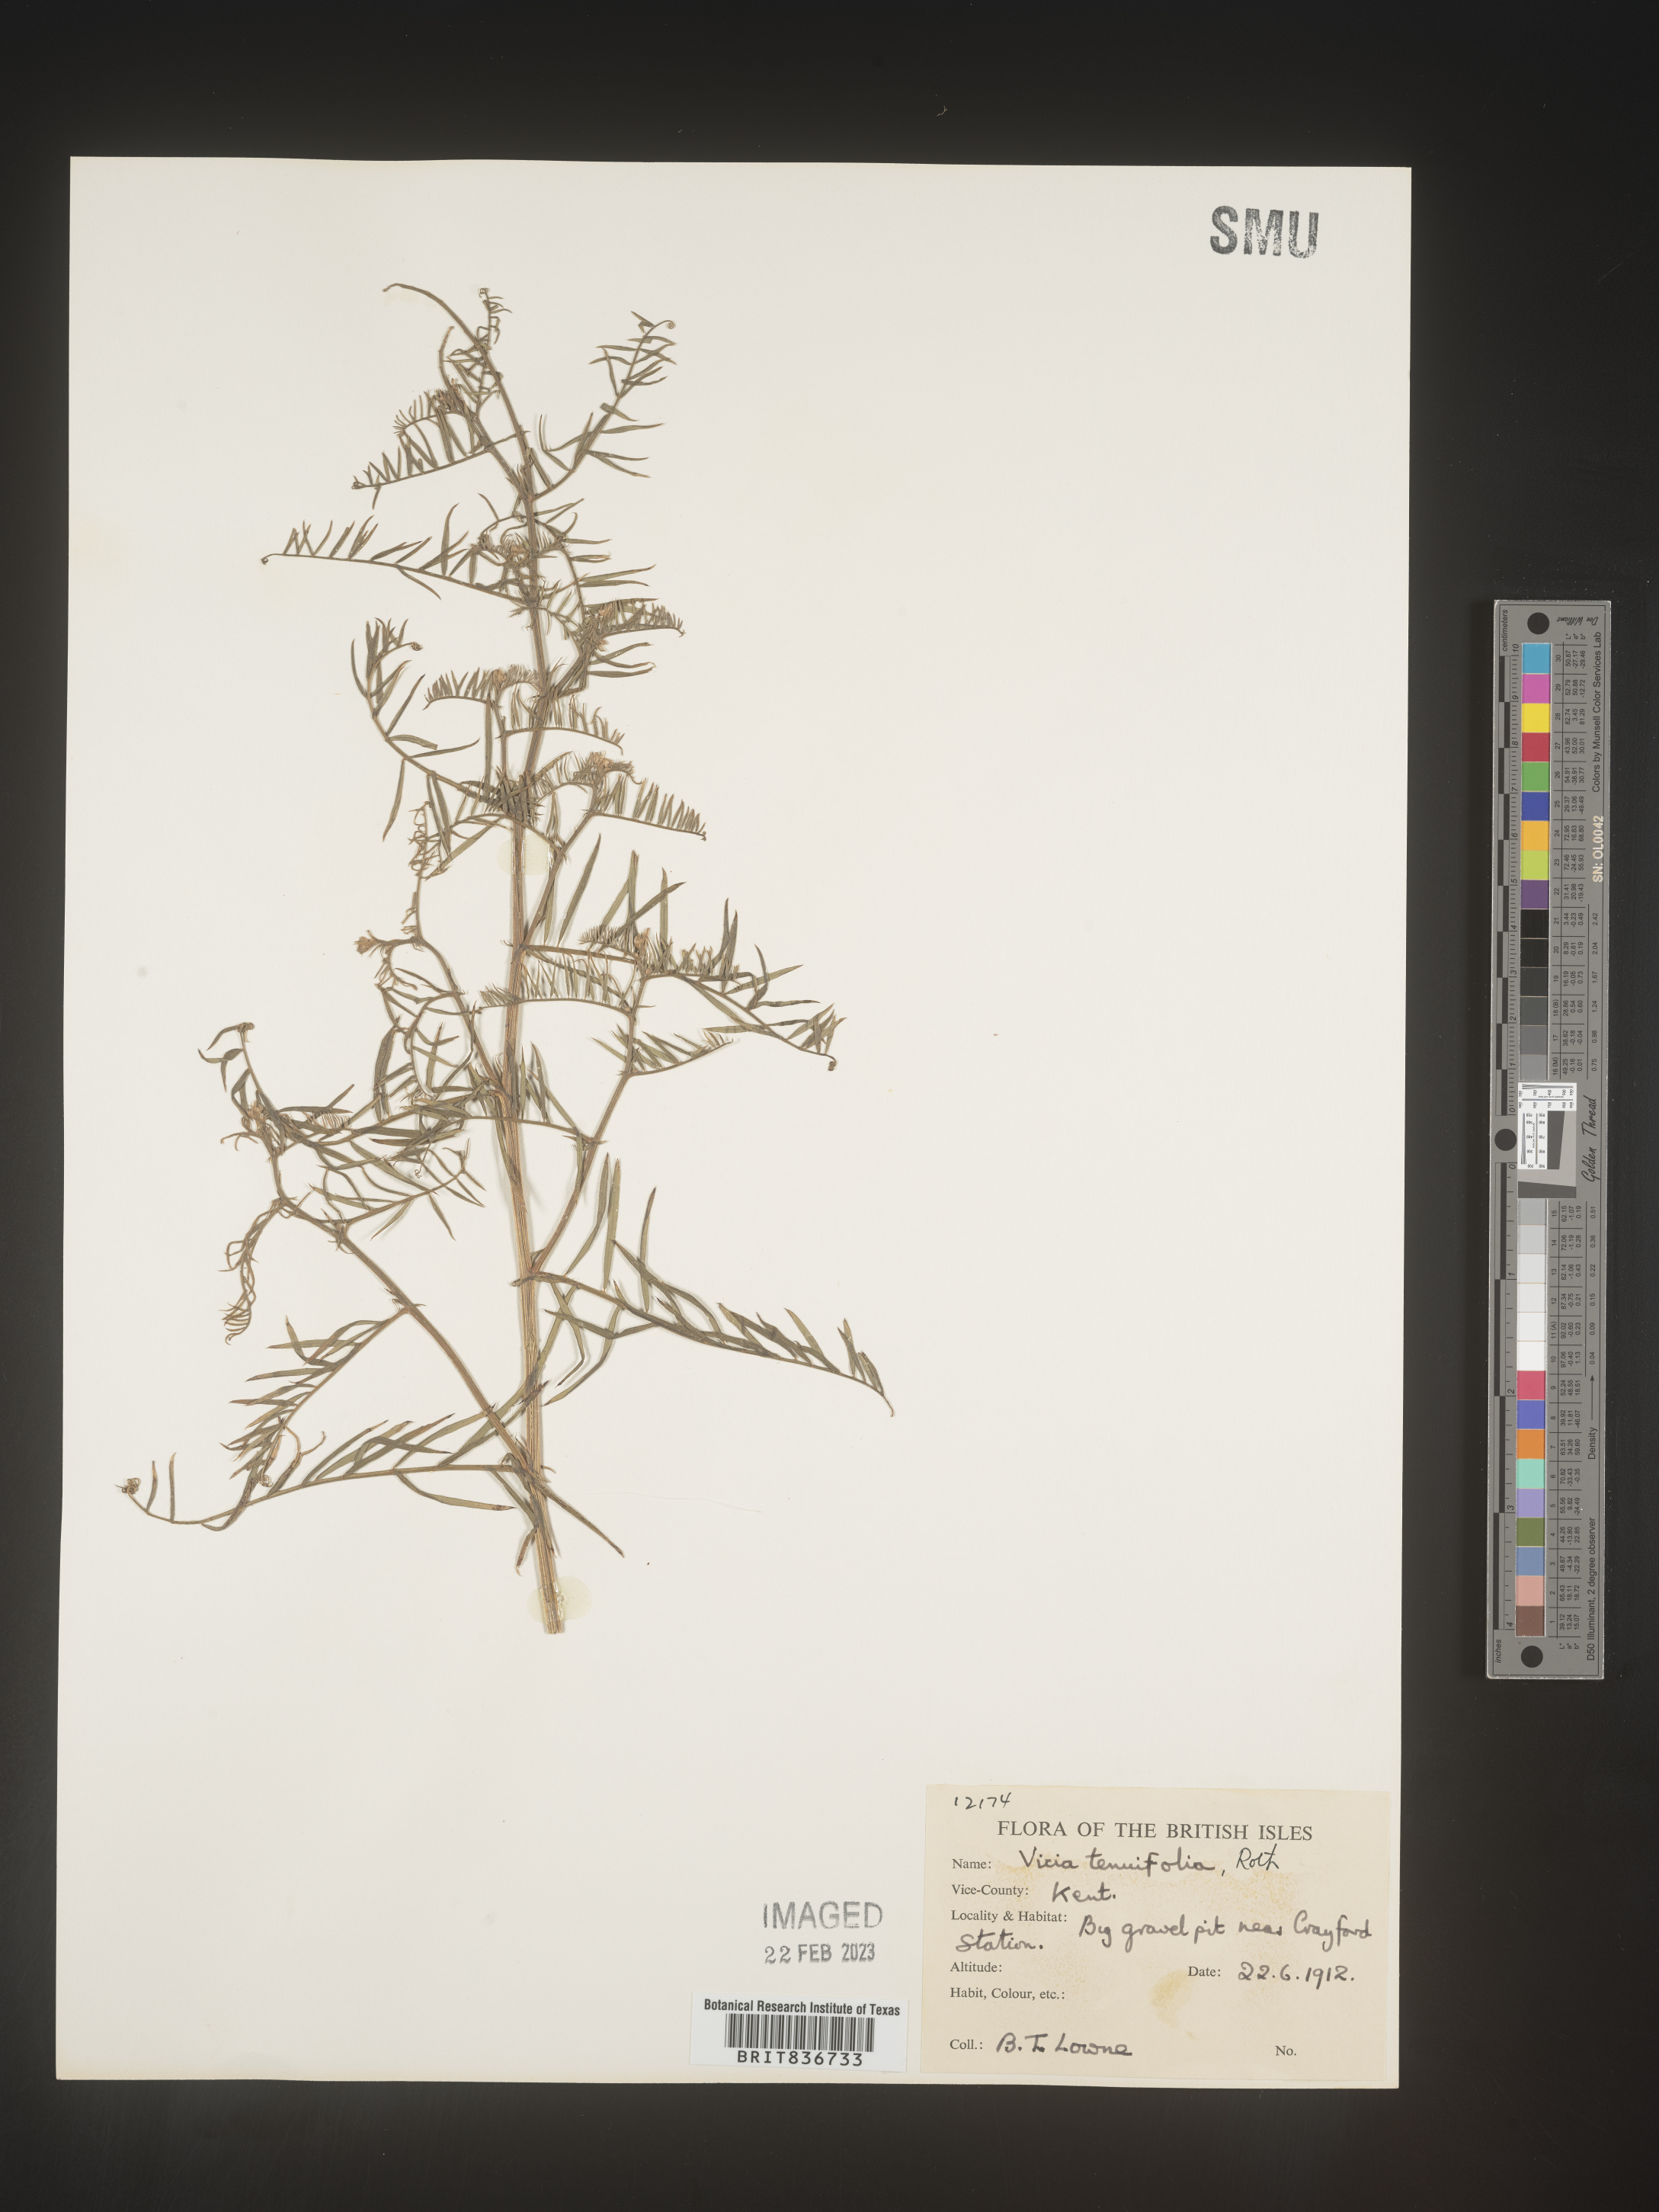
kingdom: Plantae
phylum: Tracheophyta
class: Magnoliopsida
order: Fabales
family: Fabaceae
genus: Vicia
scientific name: Vicia
